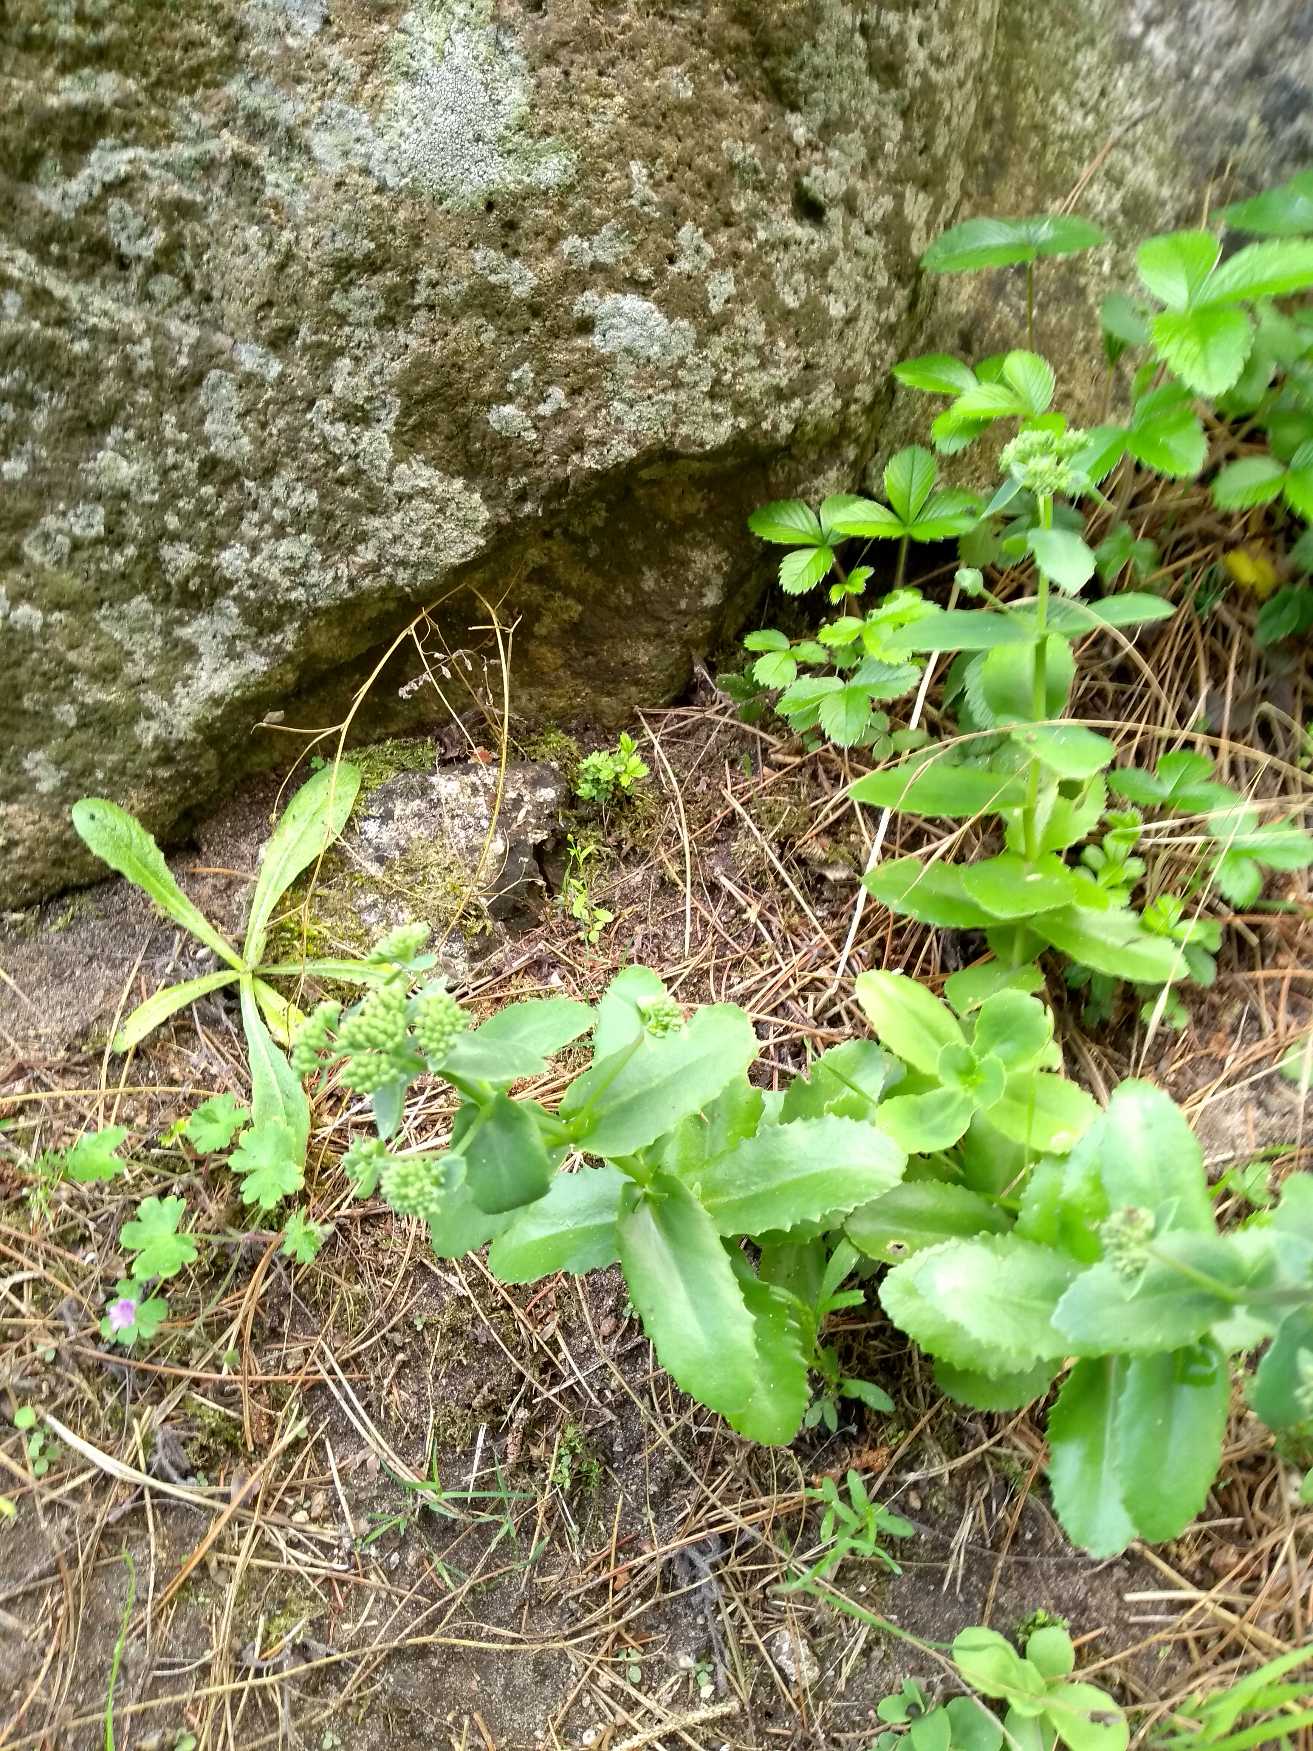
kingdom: Plantae
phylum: Tracheophyta
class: Magnoliopsida
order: Saxifragales
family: Crassulaceae
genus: Hylotelephium
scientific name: Hylotelephium maximum
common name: Almindelig sankthansurt
